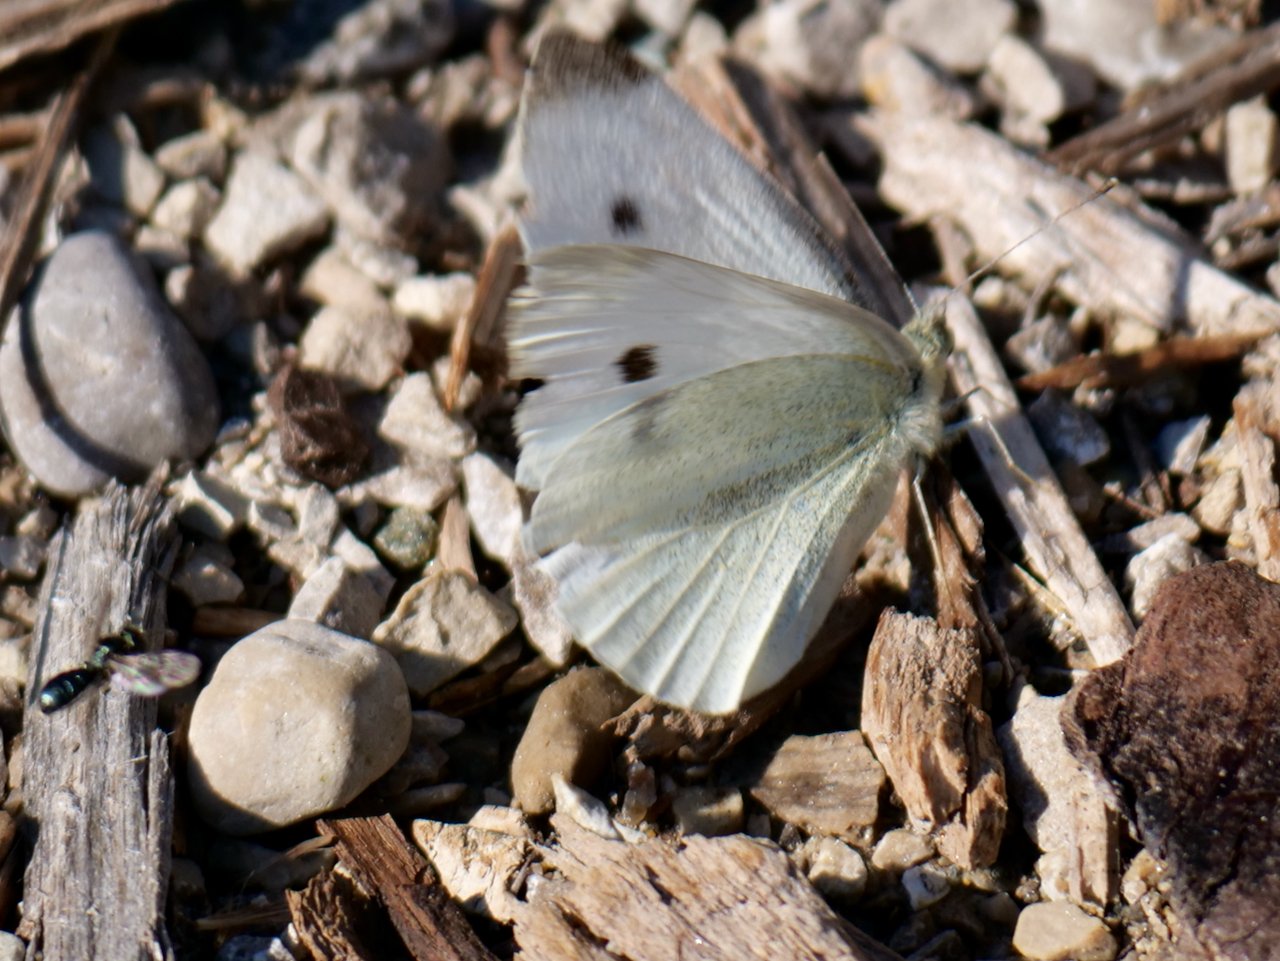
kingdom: Animalia
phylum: Arthropoda
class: Insecta
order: Lepidoptera
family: Pieridae
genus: Pieris
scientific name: Pieris rapae
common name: Cabbage White
